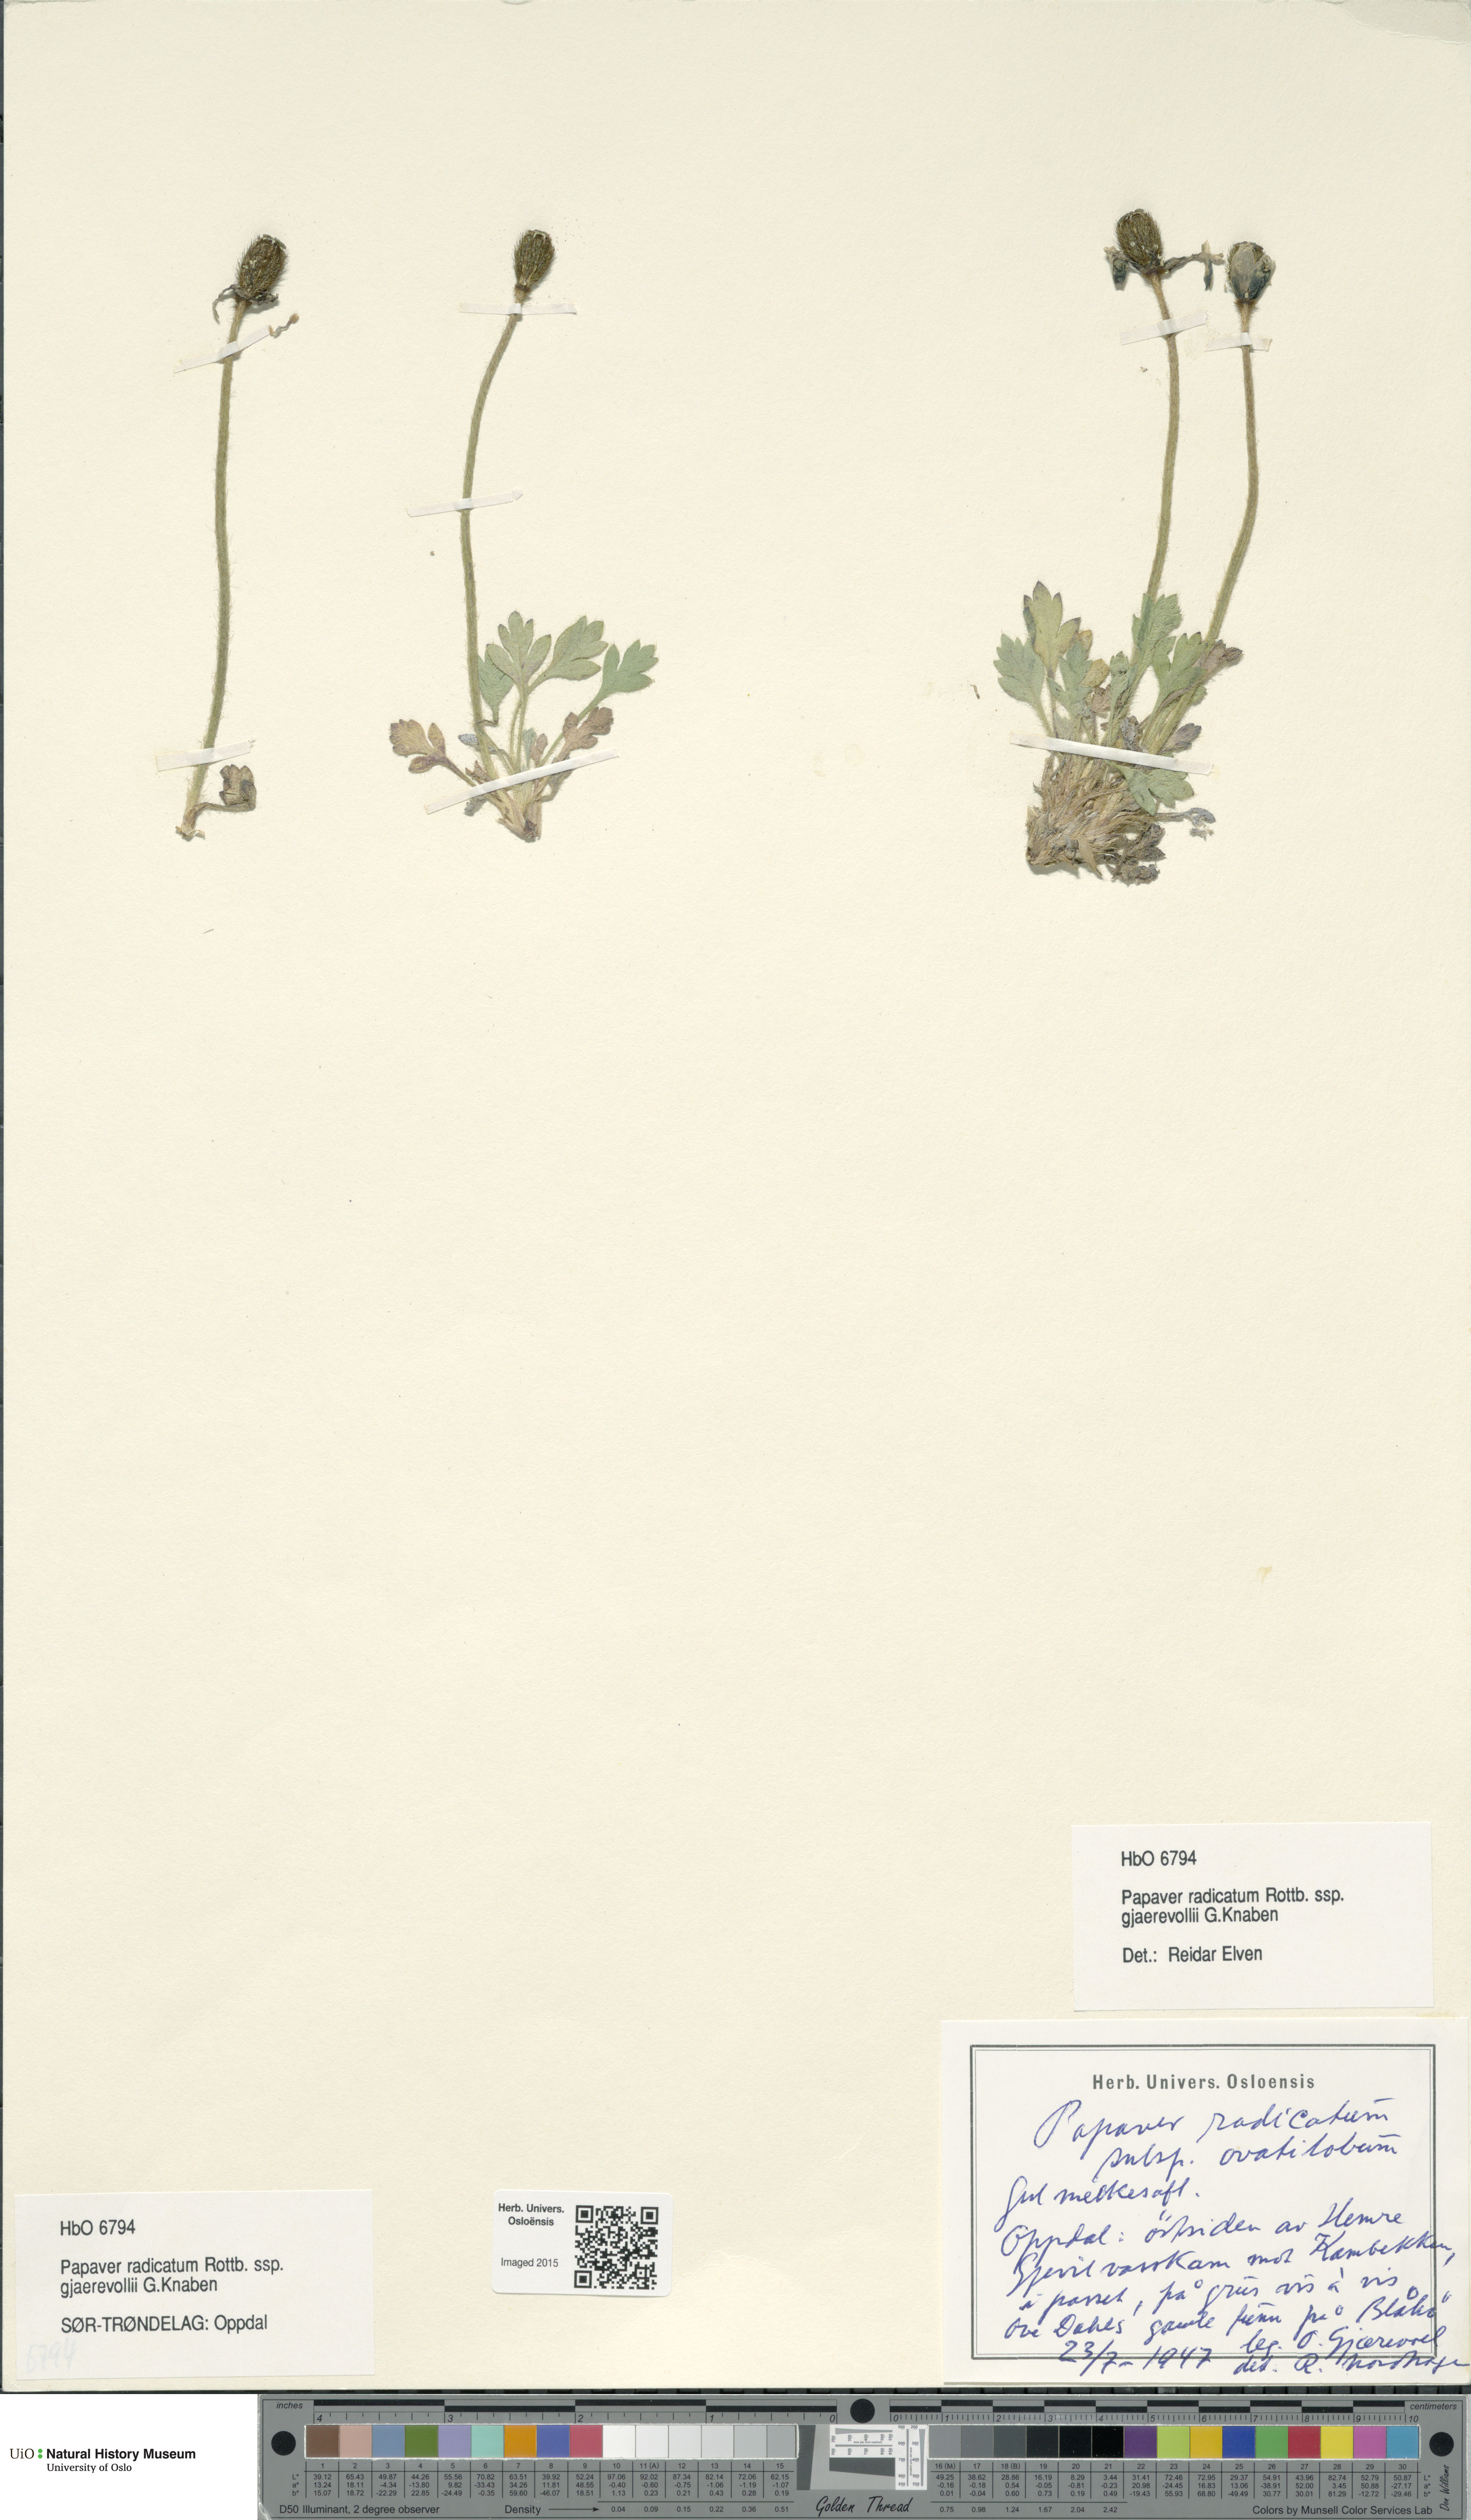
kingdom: Plantae
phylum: Tracheophyta
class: Magnoliopsida
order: Ranunculales
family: Papaveraceae
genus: Papaver
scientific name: Papaver radicatum
